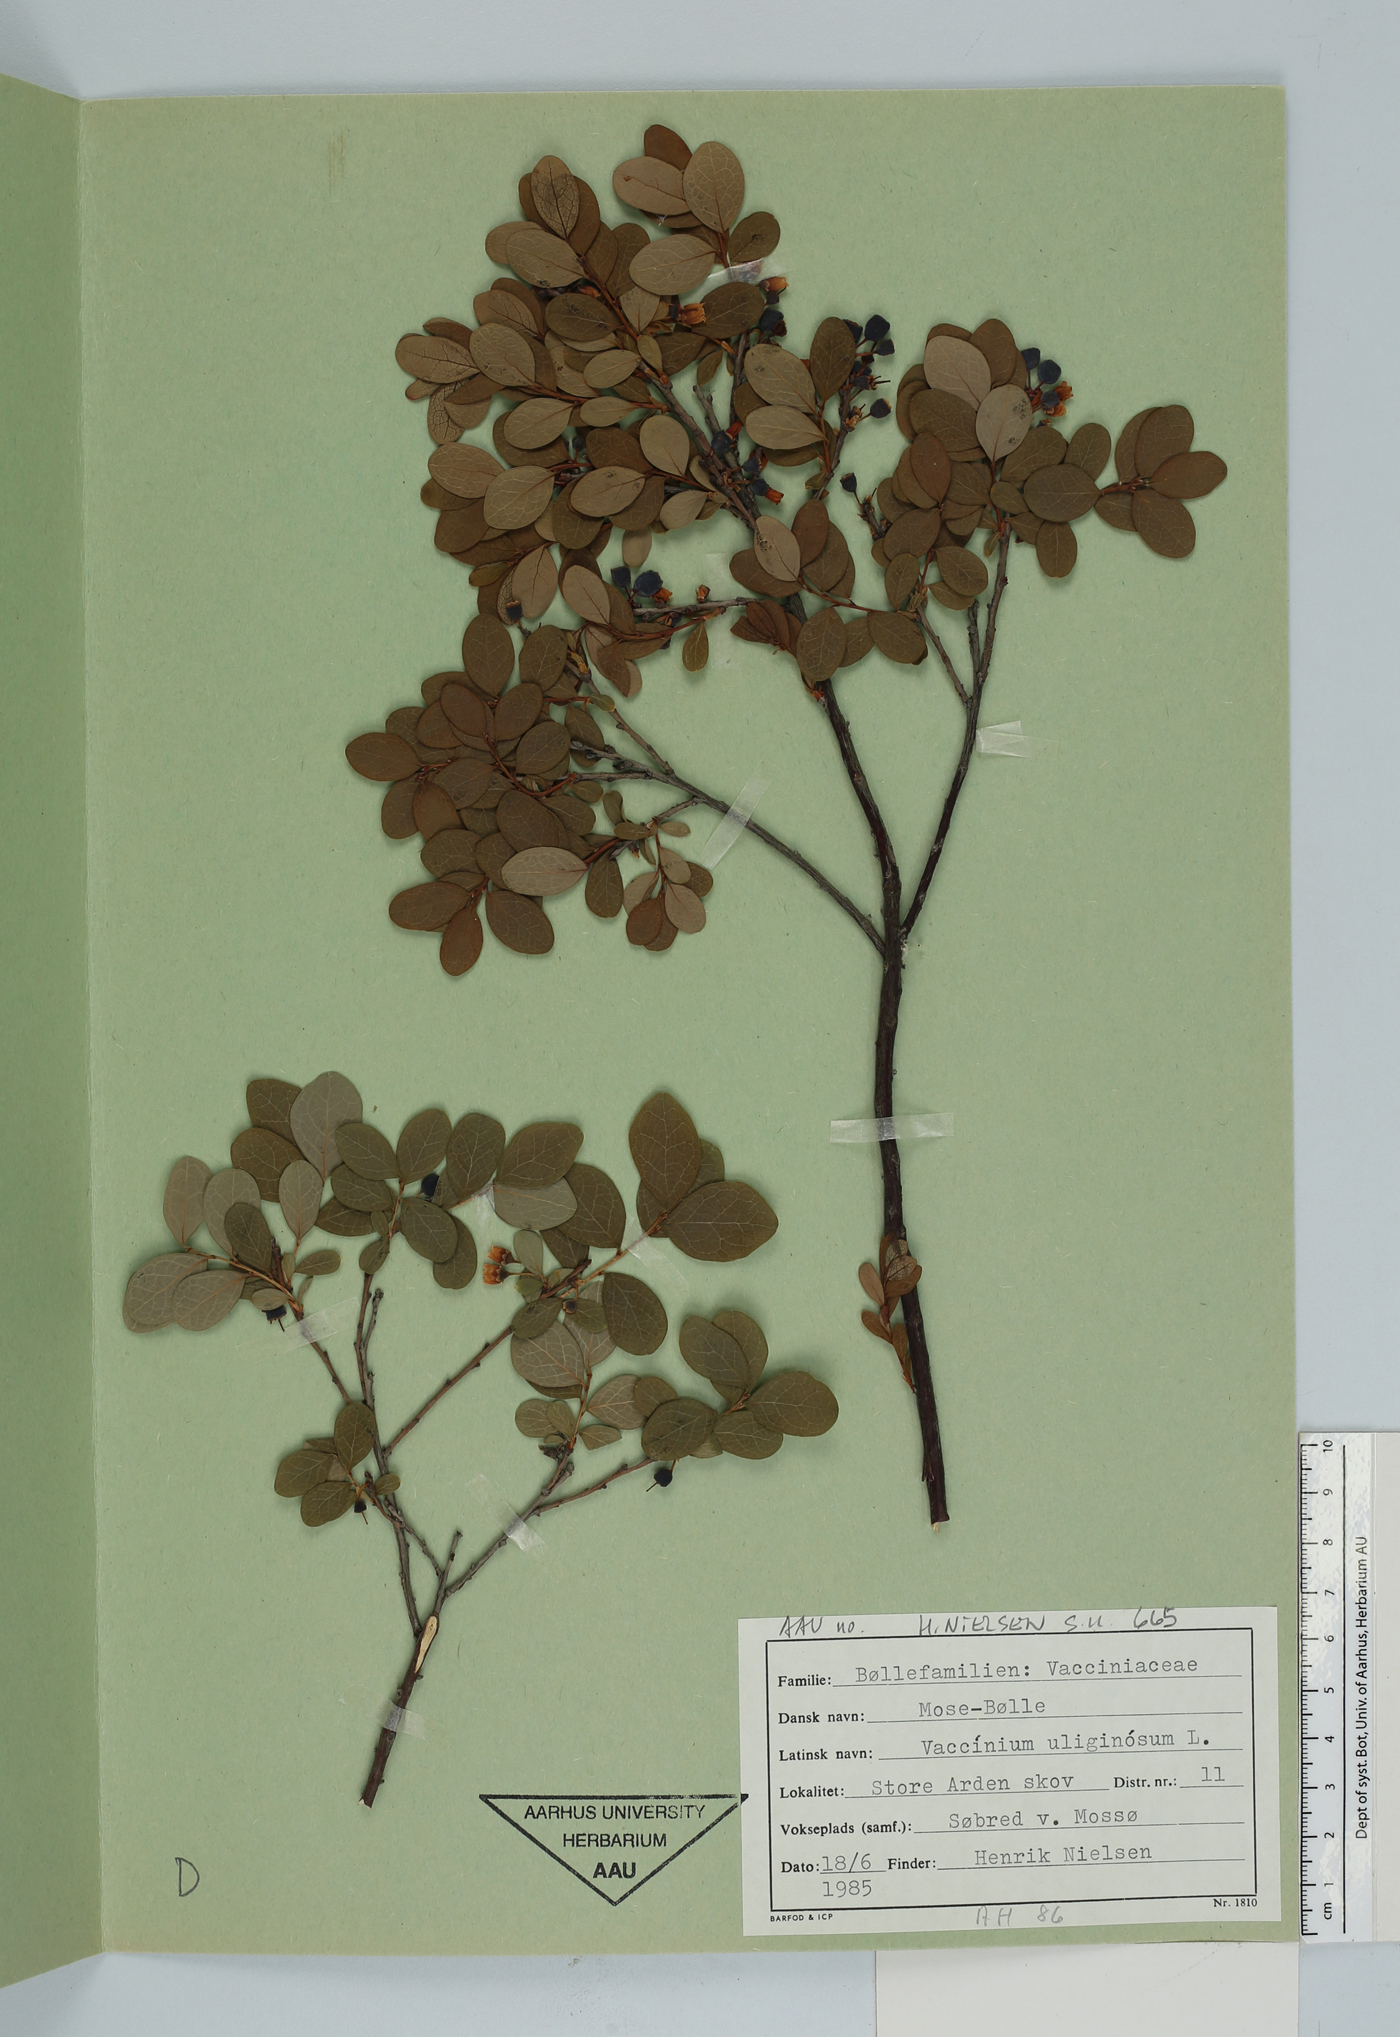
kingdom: Plantae
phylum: Tracheophyta
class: Magnoliopsida
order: Ericales
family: Ericaceae
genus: Vaccinium
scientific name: Vaccinium uliginosum
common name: Bog bilberry
